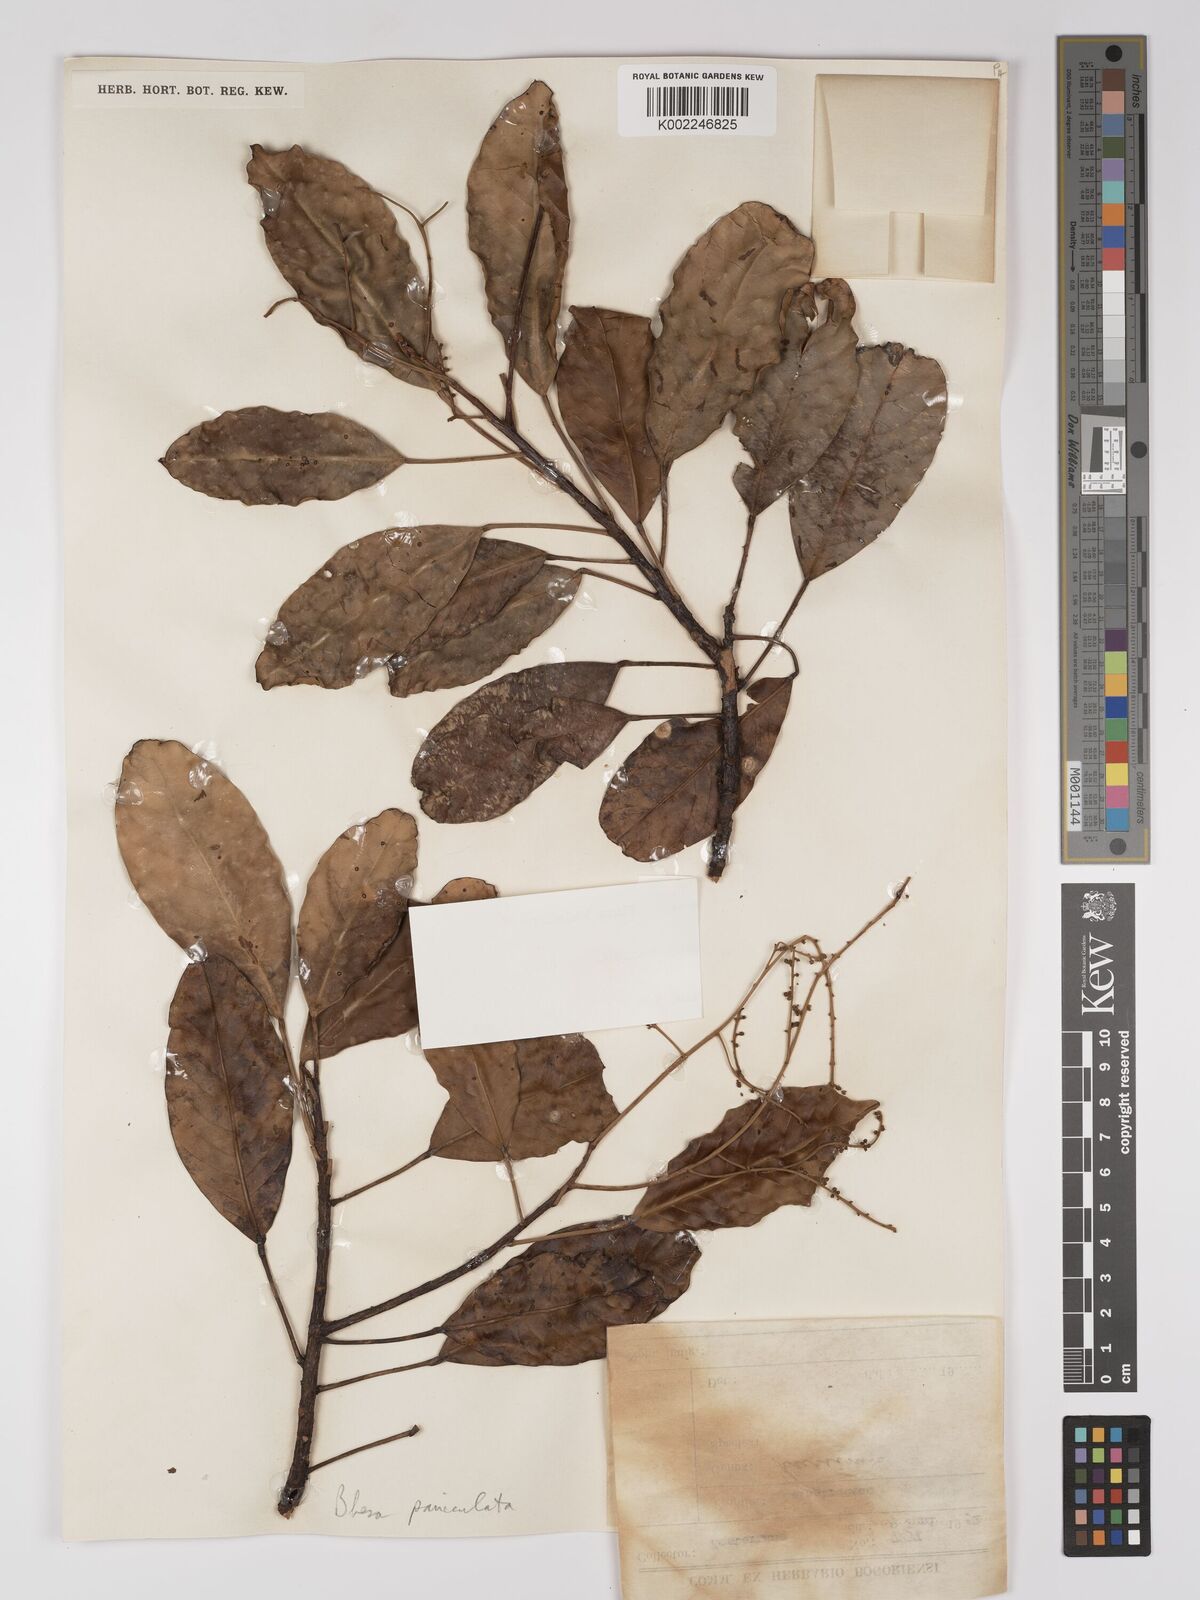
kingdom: Plantae
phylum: Tracheophyta
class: Magnoliopsida
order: Malpighiales
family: Centroplacaceae
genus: Bhesa
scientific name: Bhesa paniculata
